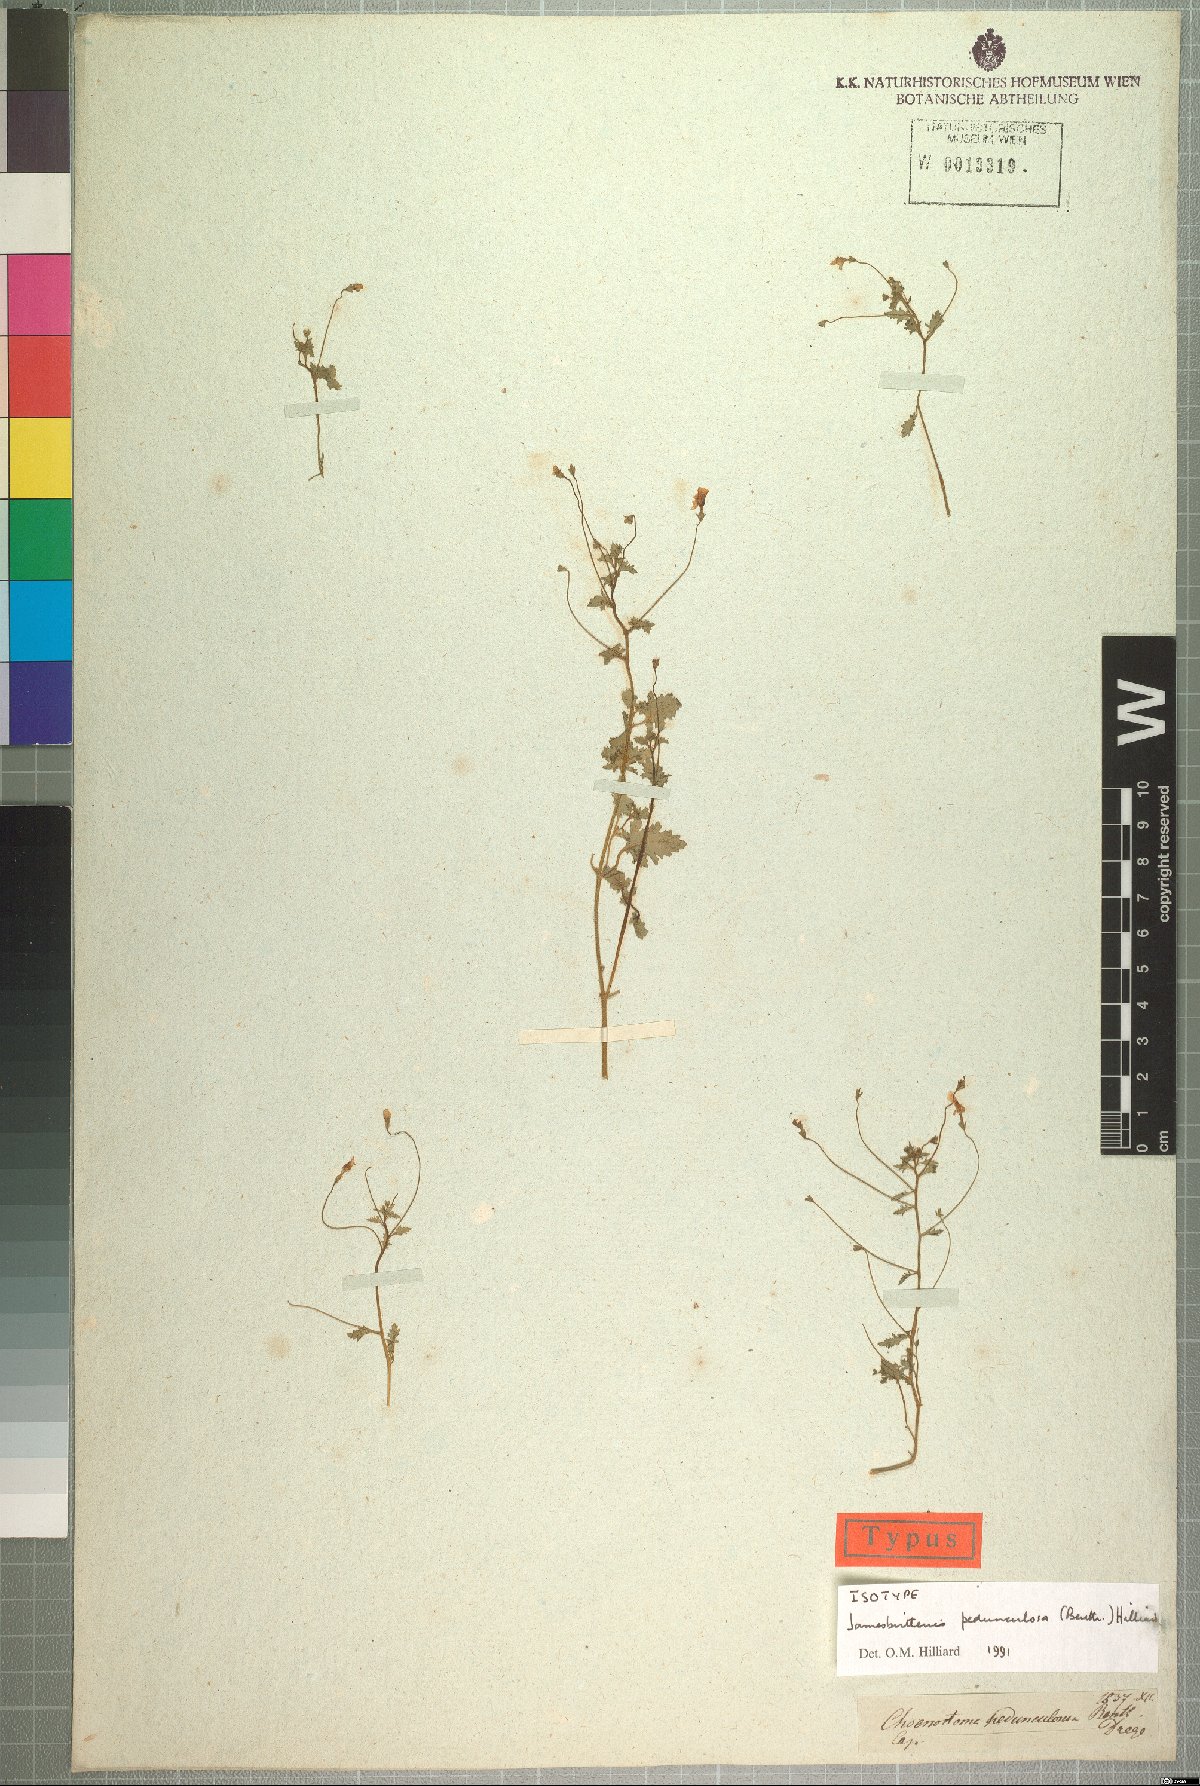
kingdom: Plantae
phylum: Tracheophyta
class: Magnoliopsida
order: Lamiales
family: Scrophulariaceae
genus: Jamesbrittenia
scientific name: Jamesbrittenia pedunculosa
